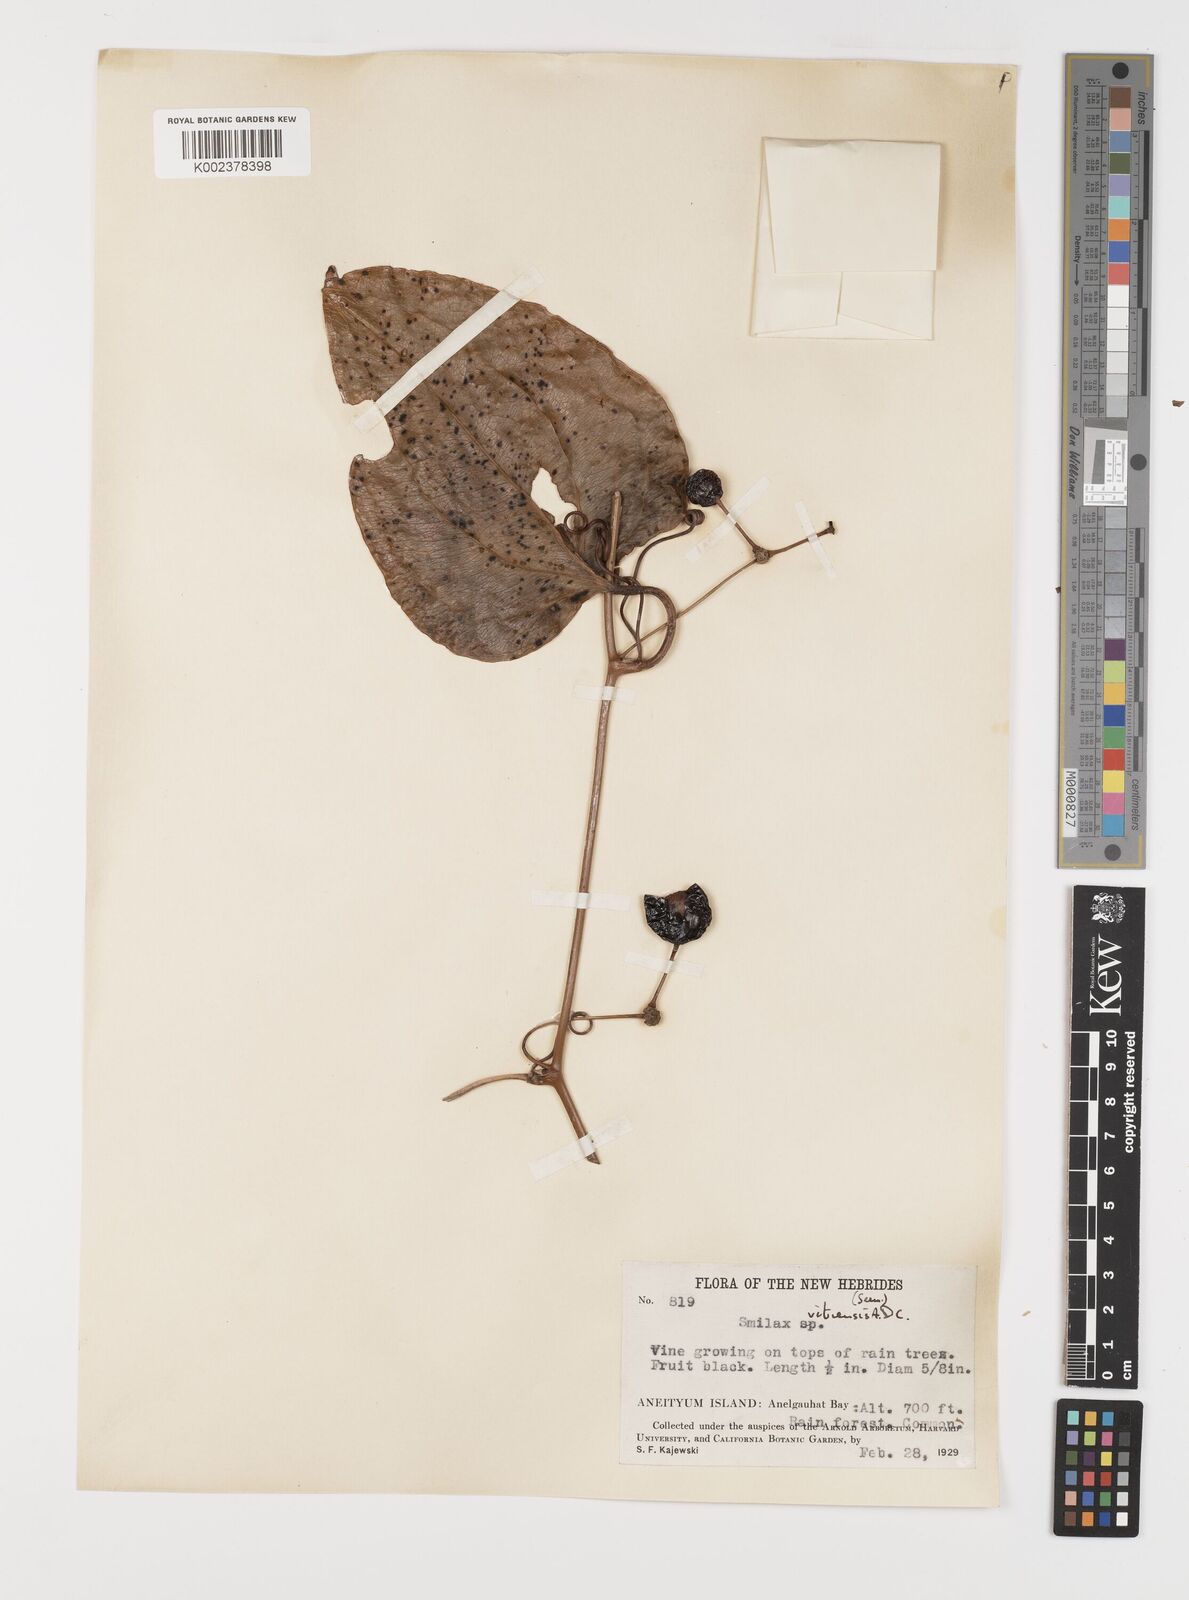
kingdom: Plantae
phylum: Tracheophyta
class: Liliopsida
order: Liliales
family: Smilacaceae
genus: Smilax
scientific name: Smilax vitiensis
